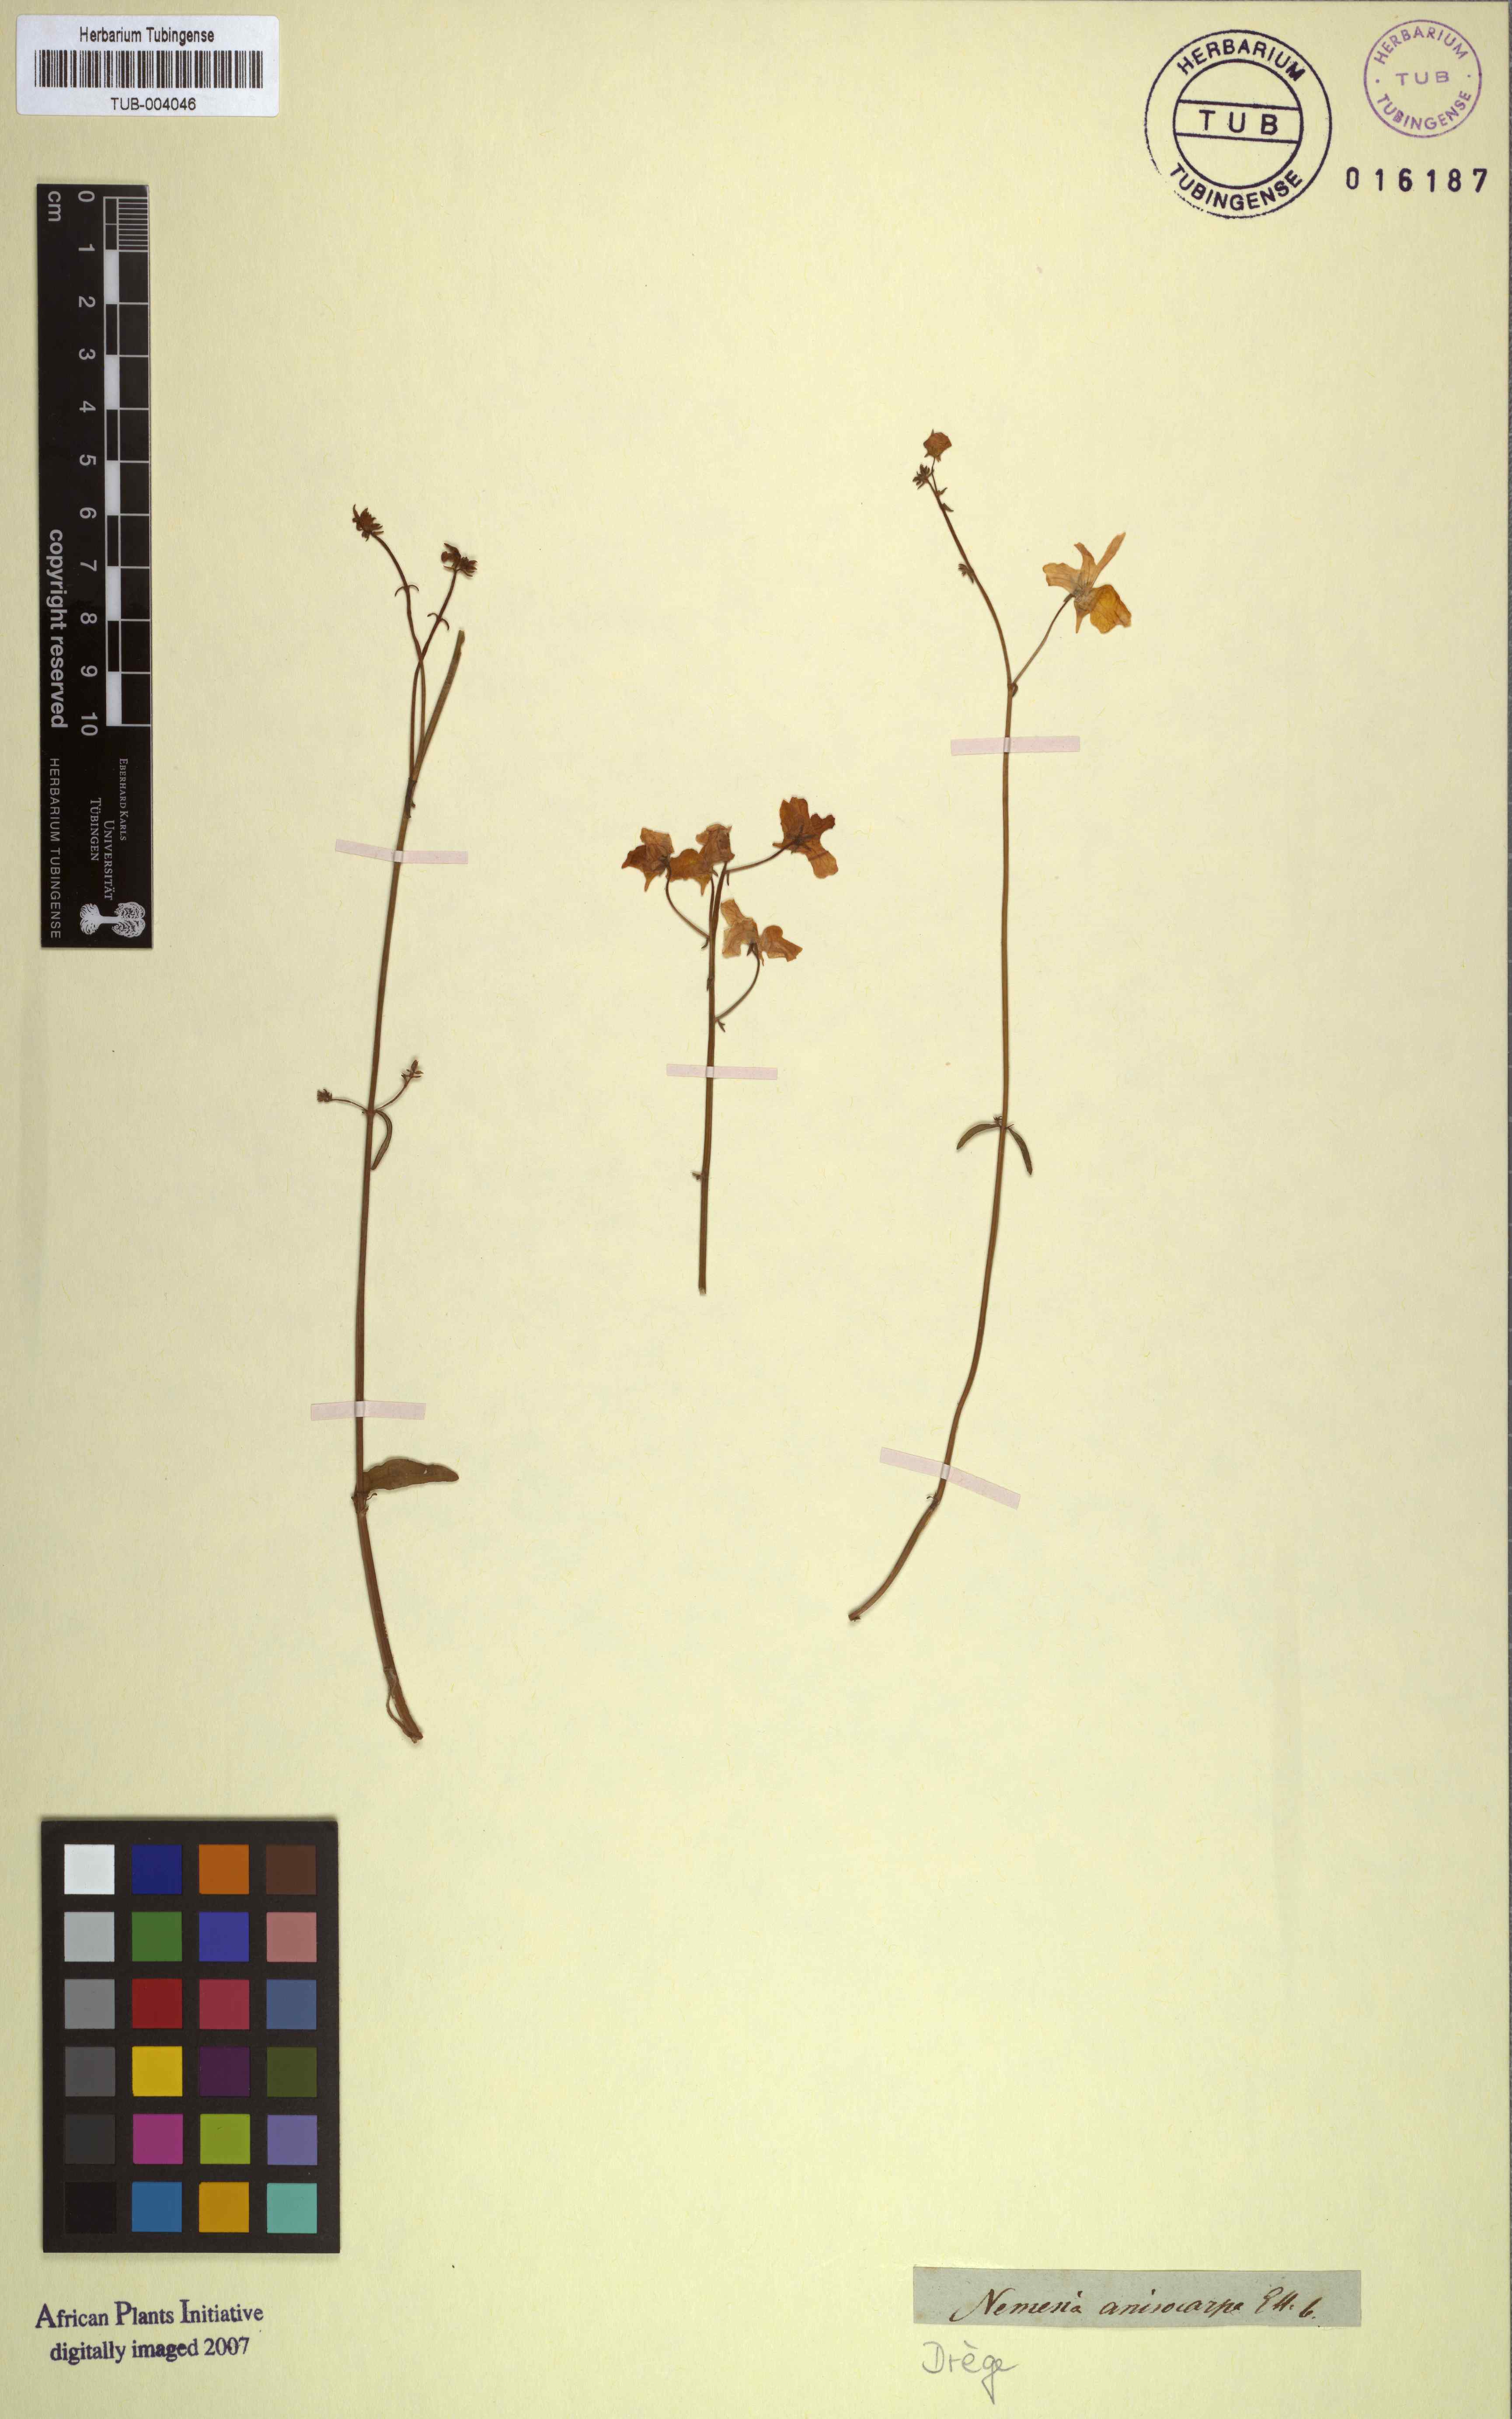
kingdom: Plantae
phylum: Tracheophyta
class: Magnoliopsida
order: Lamiales
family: Scrophulariaceae
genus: Nemesia
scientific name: Nemesia anisocarpa
